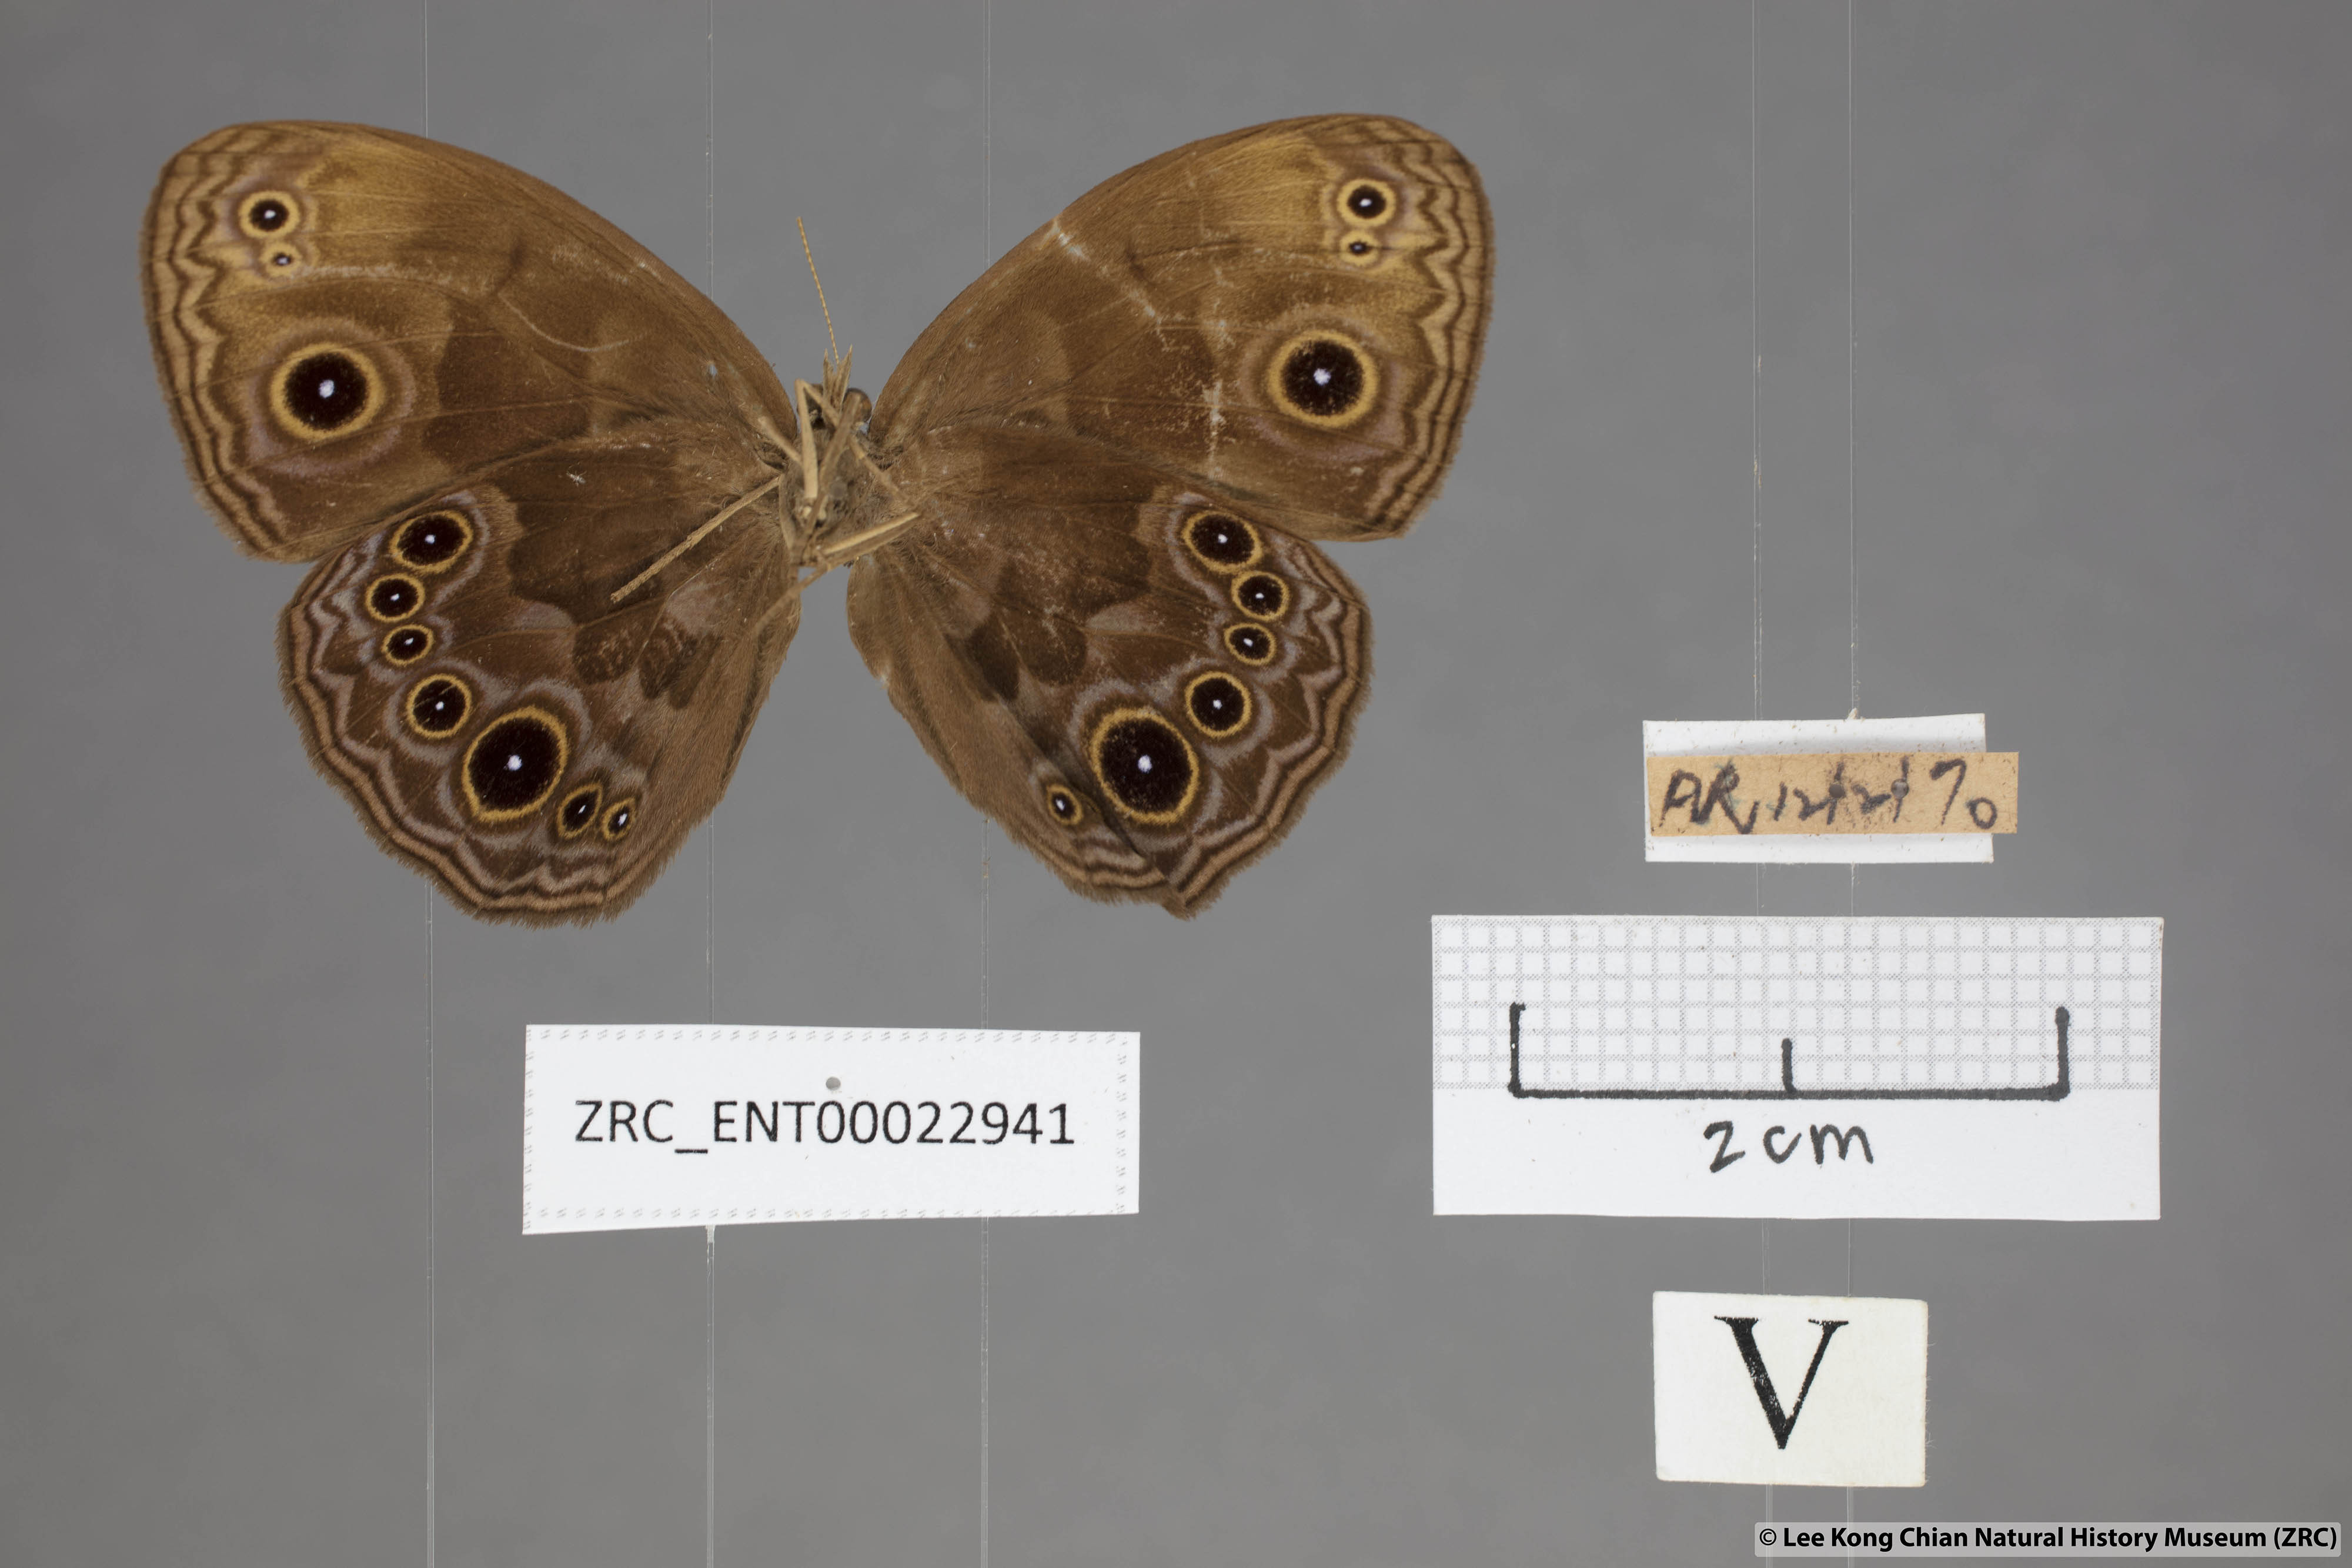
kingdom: Animalia
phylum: Arthropoda
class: Insecta
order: Lepidoptera
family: Nymphalidae
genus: Mycalesis
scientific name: Mycalesis maianeas
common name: Bandless bushbrown
